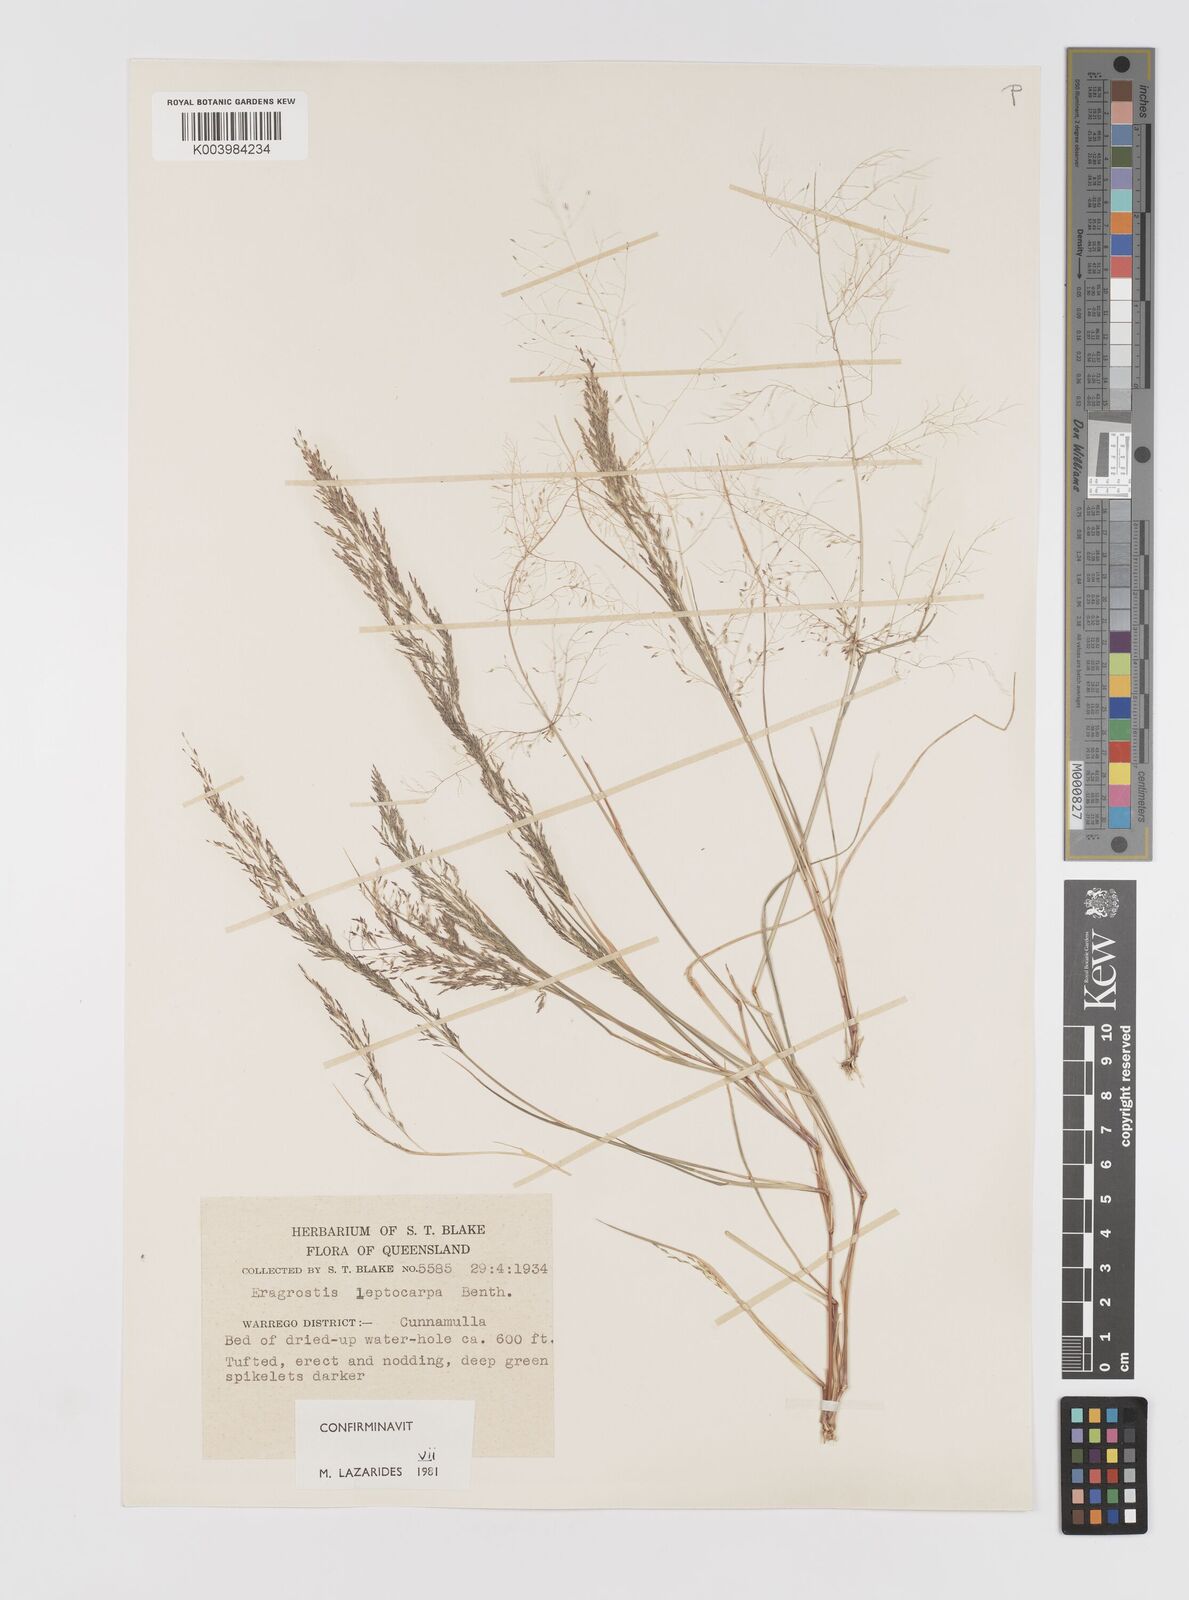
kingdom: Plantae
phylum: Tracheophyta
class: Liliopsida
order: Poales
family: Poaceae
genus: Eragrostis
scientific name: Eragrostis leptocarpa
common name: Drooping love grass
